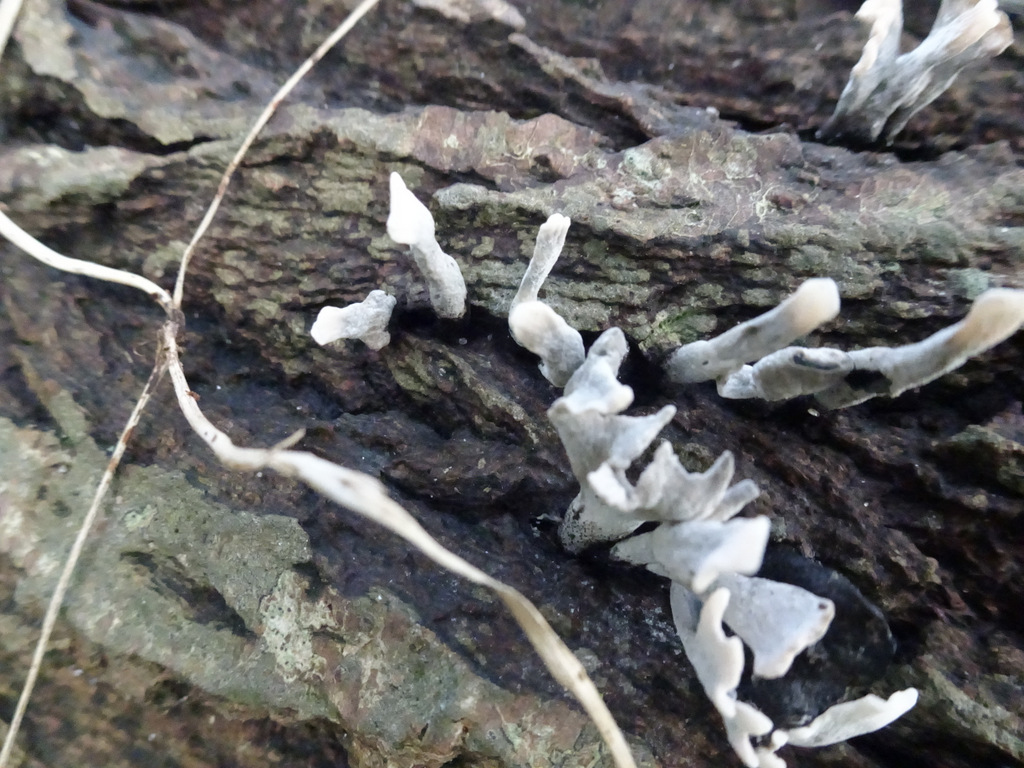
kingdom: Fungi
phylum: Ascomycota
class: Sordariomycetes
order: Xylariales
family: Xylariaceae
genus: Xylaria
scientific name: Xylaria hypoxylon
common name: grenet stødsvamp
